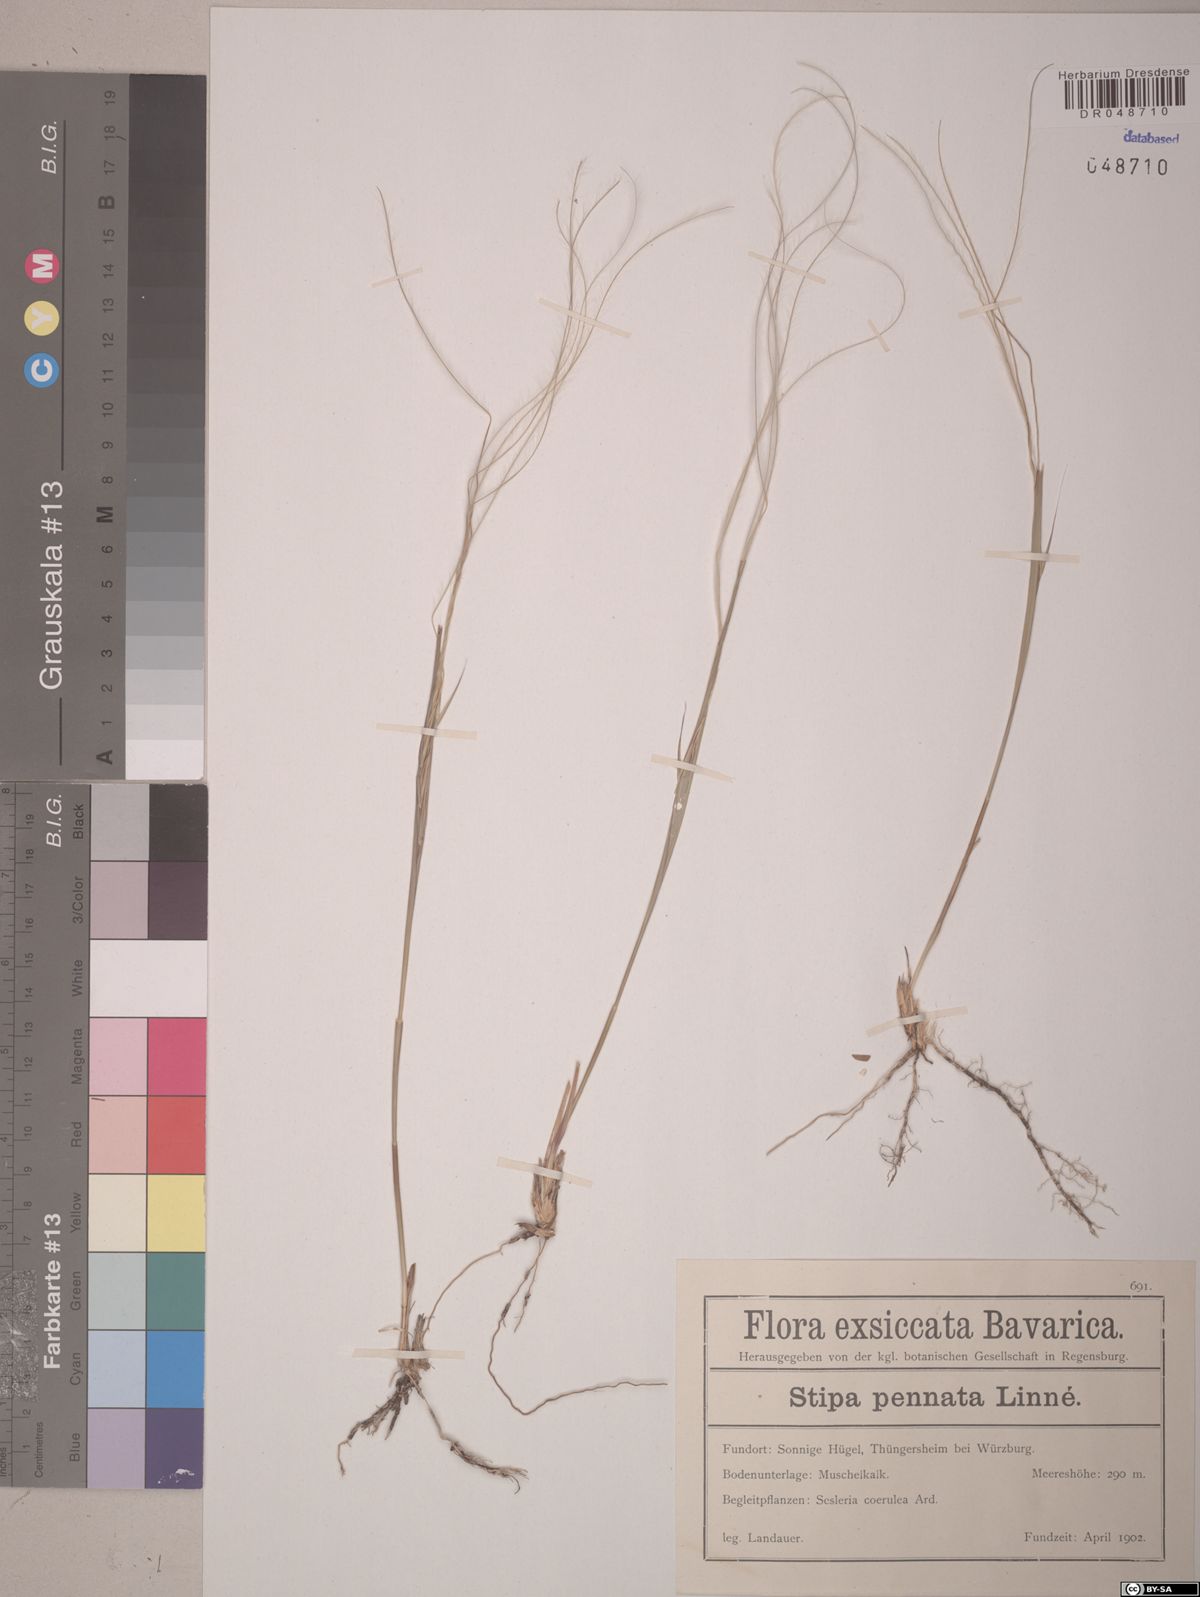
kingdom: Plantae
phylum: Tracheophyta
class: Liliopsida
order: Poales
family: Poaceae
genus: Stipa
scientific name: Stipa pennata
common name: European feather grass
